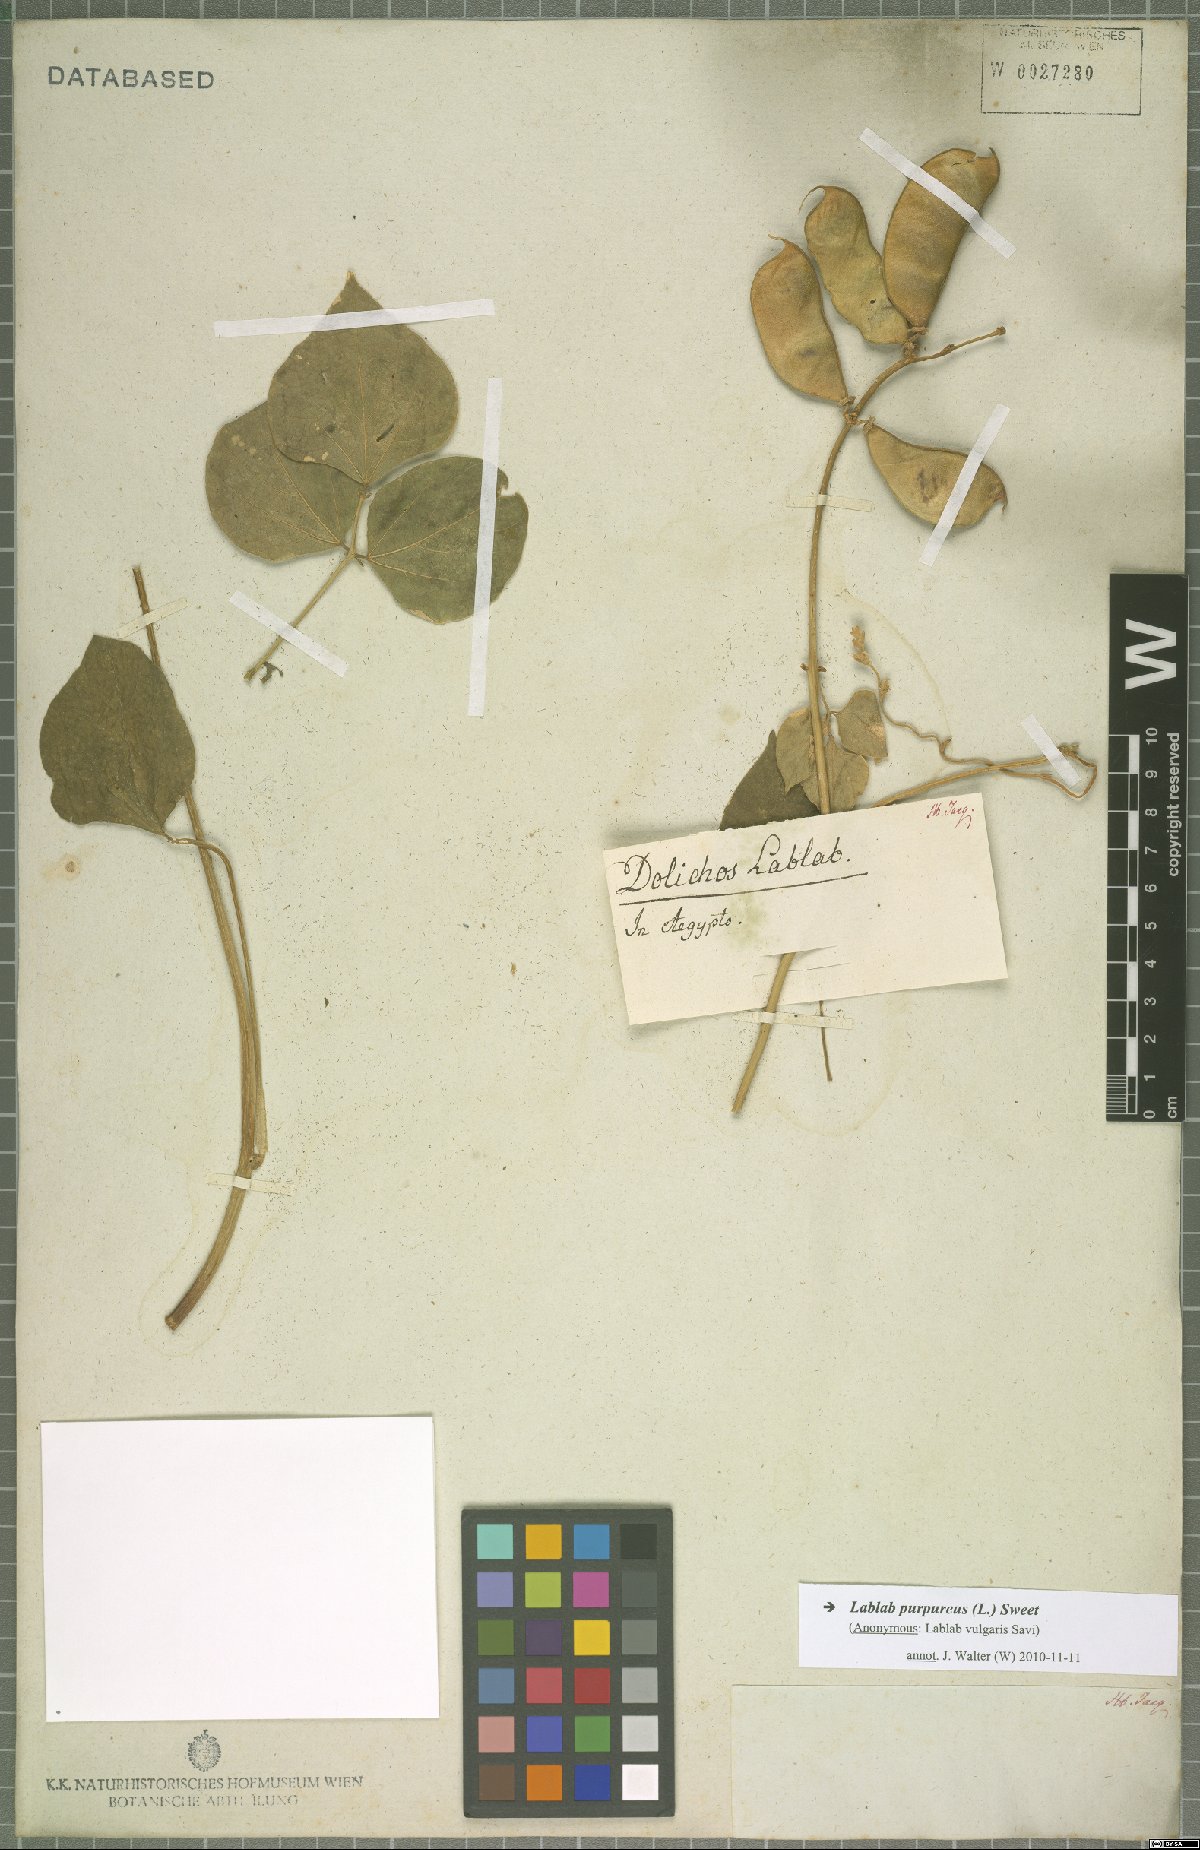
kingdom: Plantae
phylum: Tracheophyta
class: Magnoliopsida
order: Fabales
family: Fabaceae
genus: Lablab
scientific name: Lablab purpureus
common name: Lablab-bean
